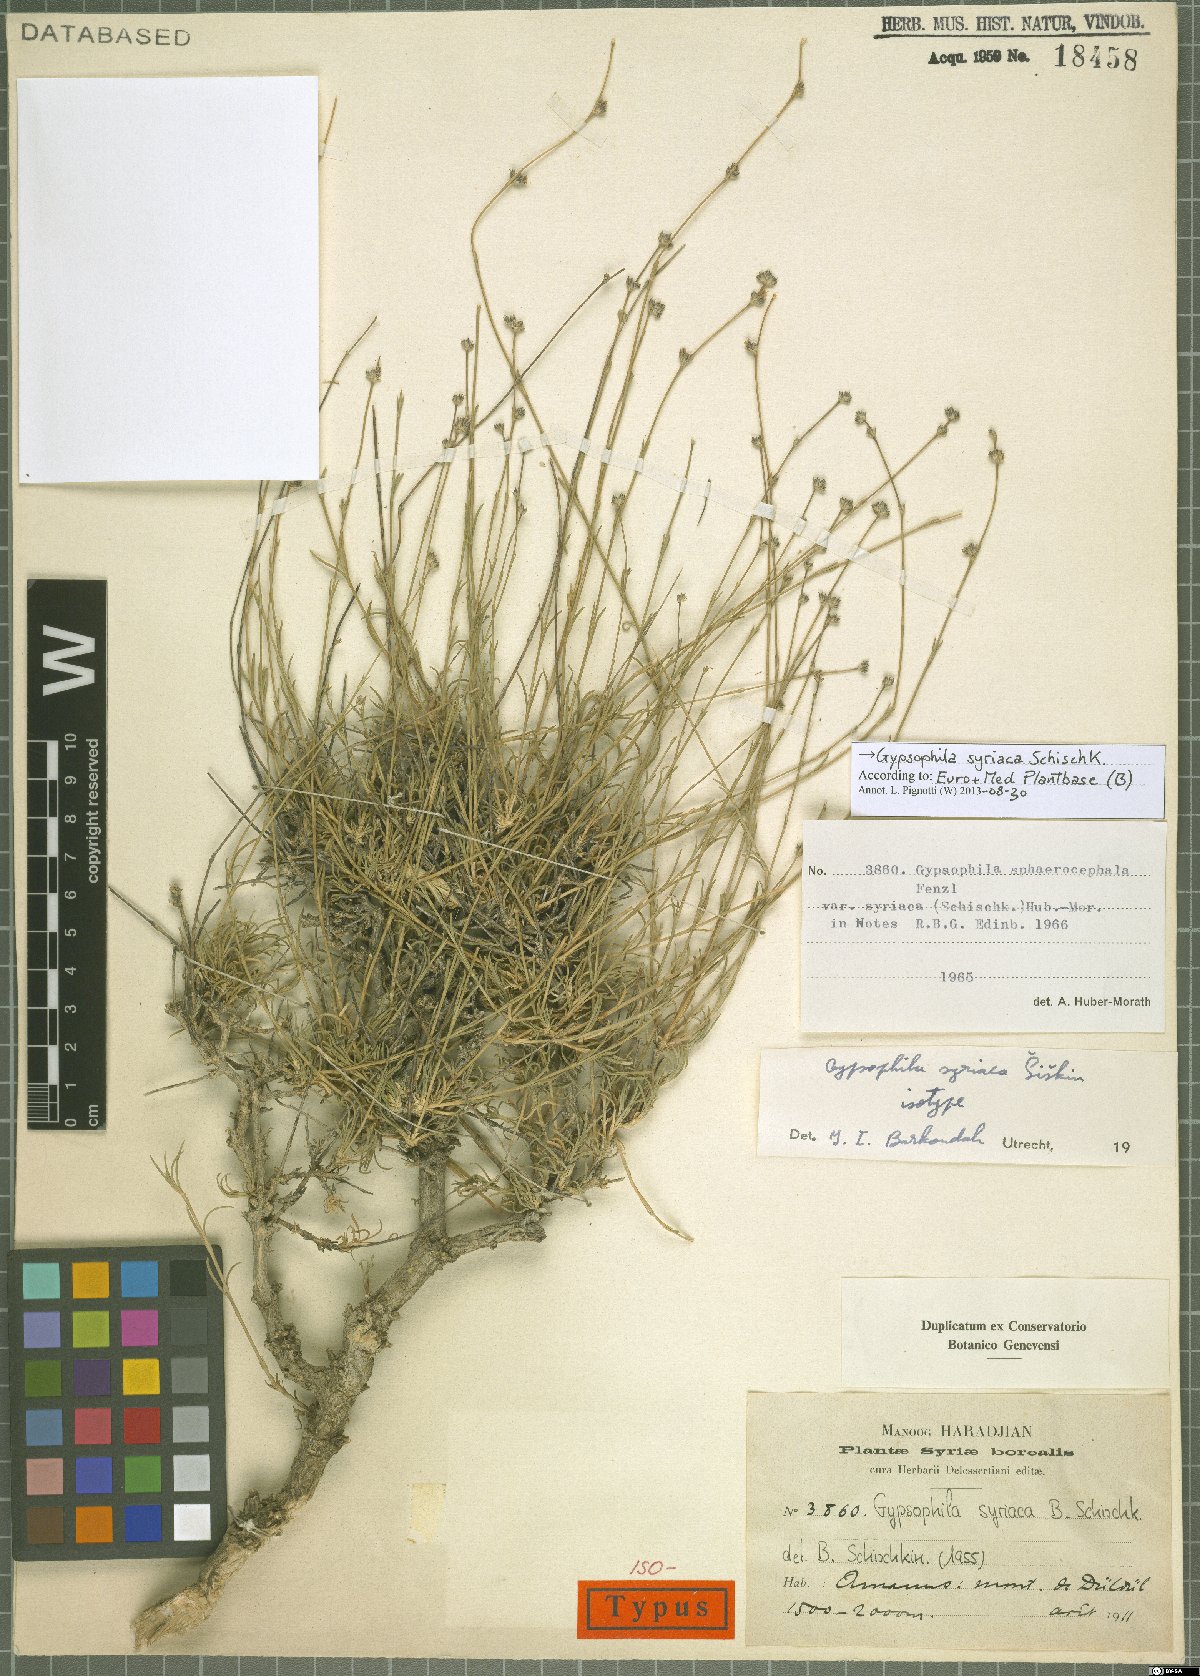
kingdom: Plantae
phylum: Tracheophyta
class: Magnoliopsida
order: Caryophyllales
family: Caryophyllaceae
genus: Gypsophila
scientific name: Gypsophila syriaca
